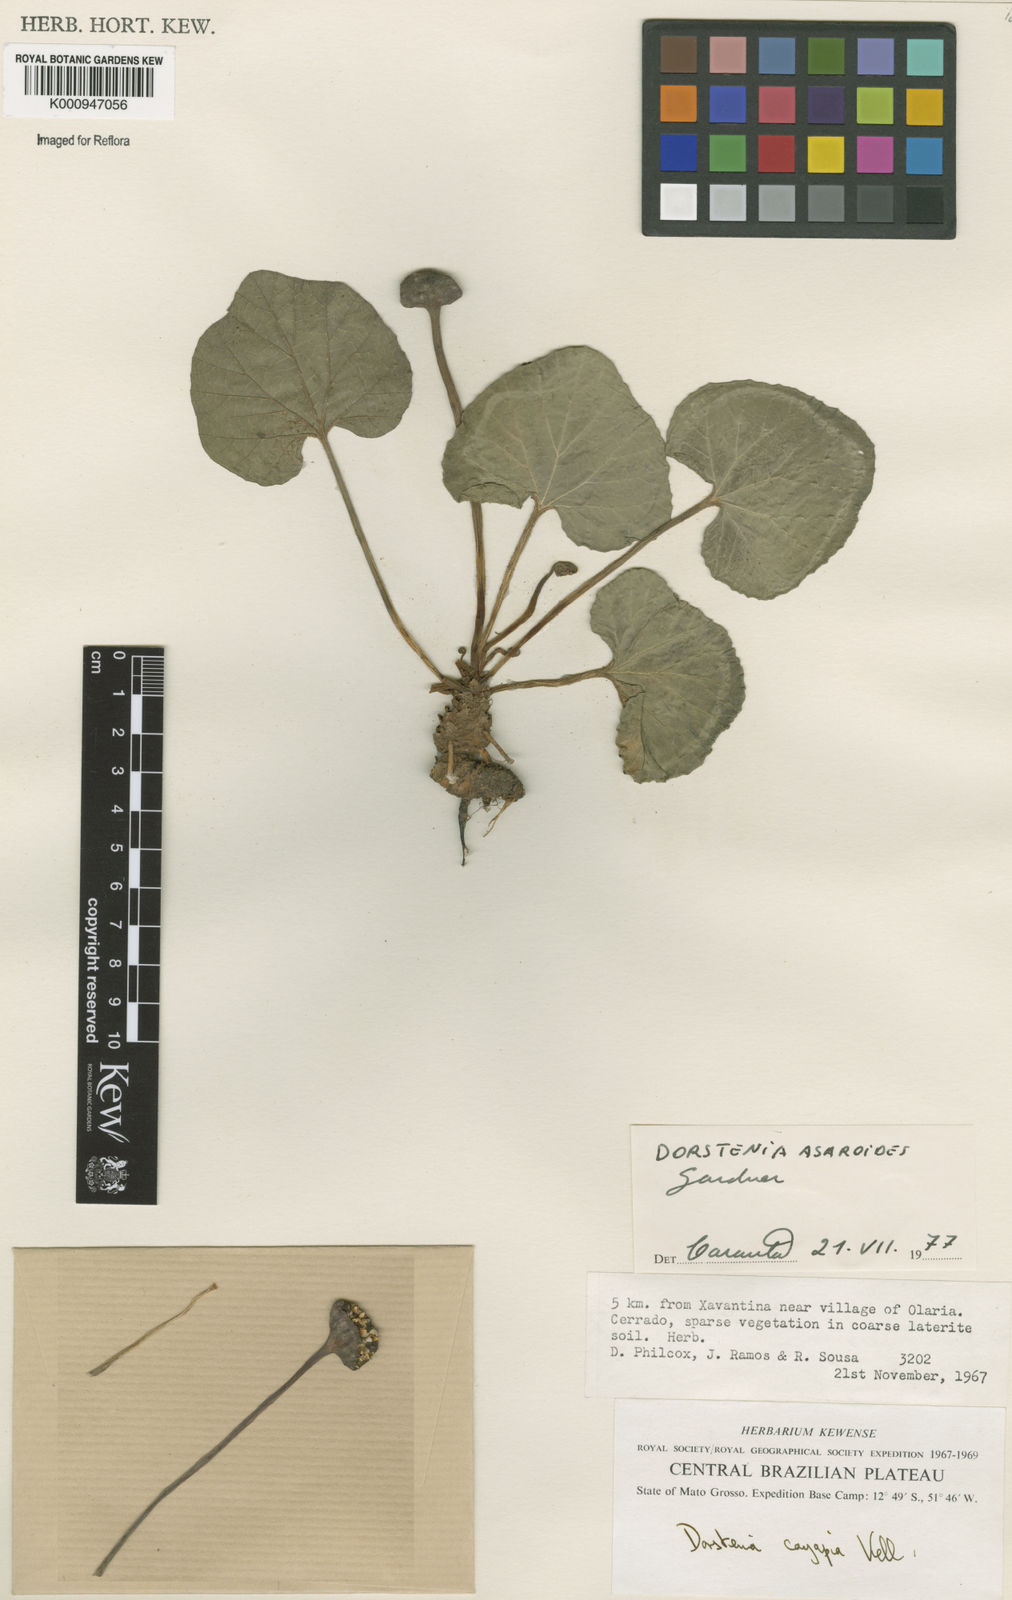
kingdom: Plantae
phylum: Tracheophyta
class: Magnoliopsida
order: Rosales
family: Moraceae
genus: Dorstenia
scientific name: Dorstenia
